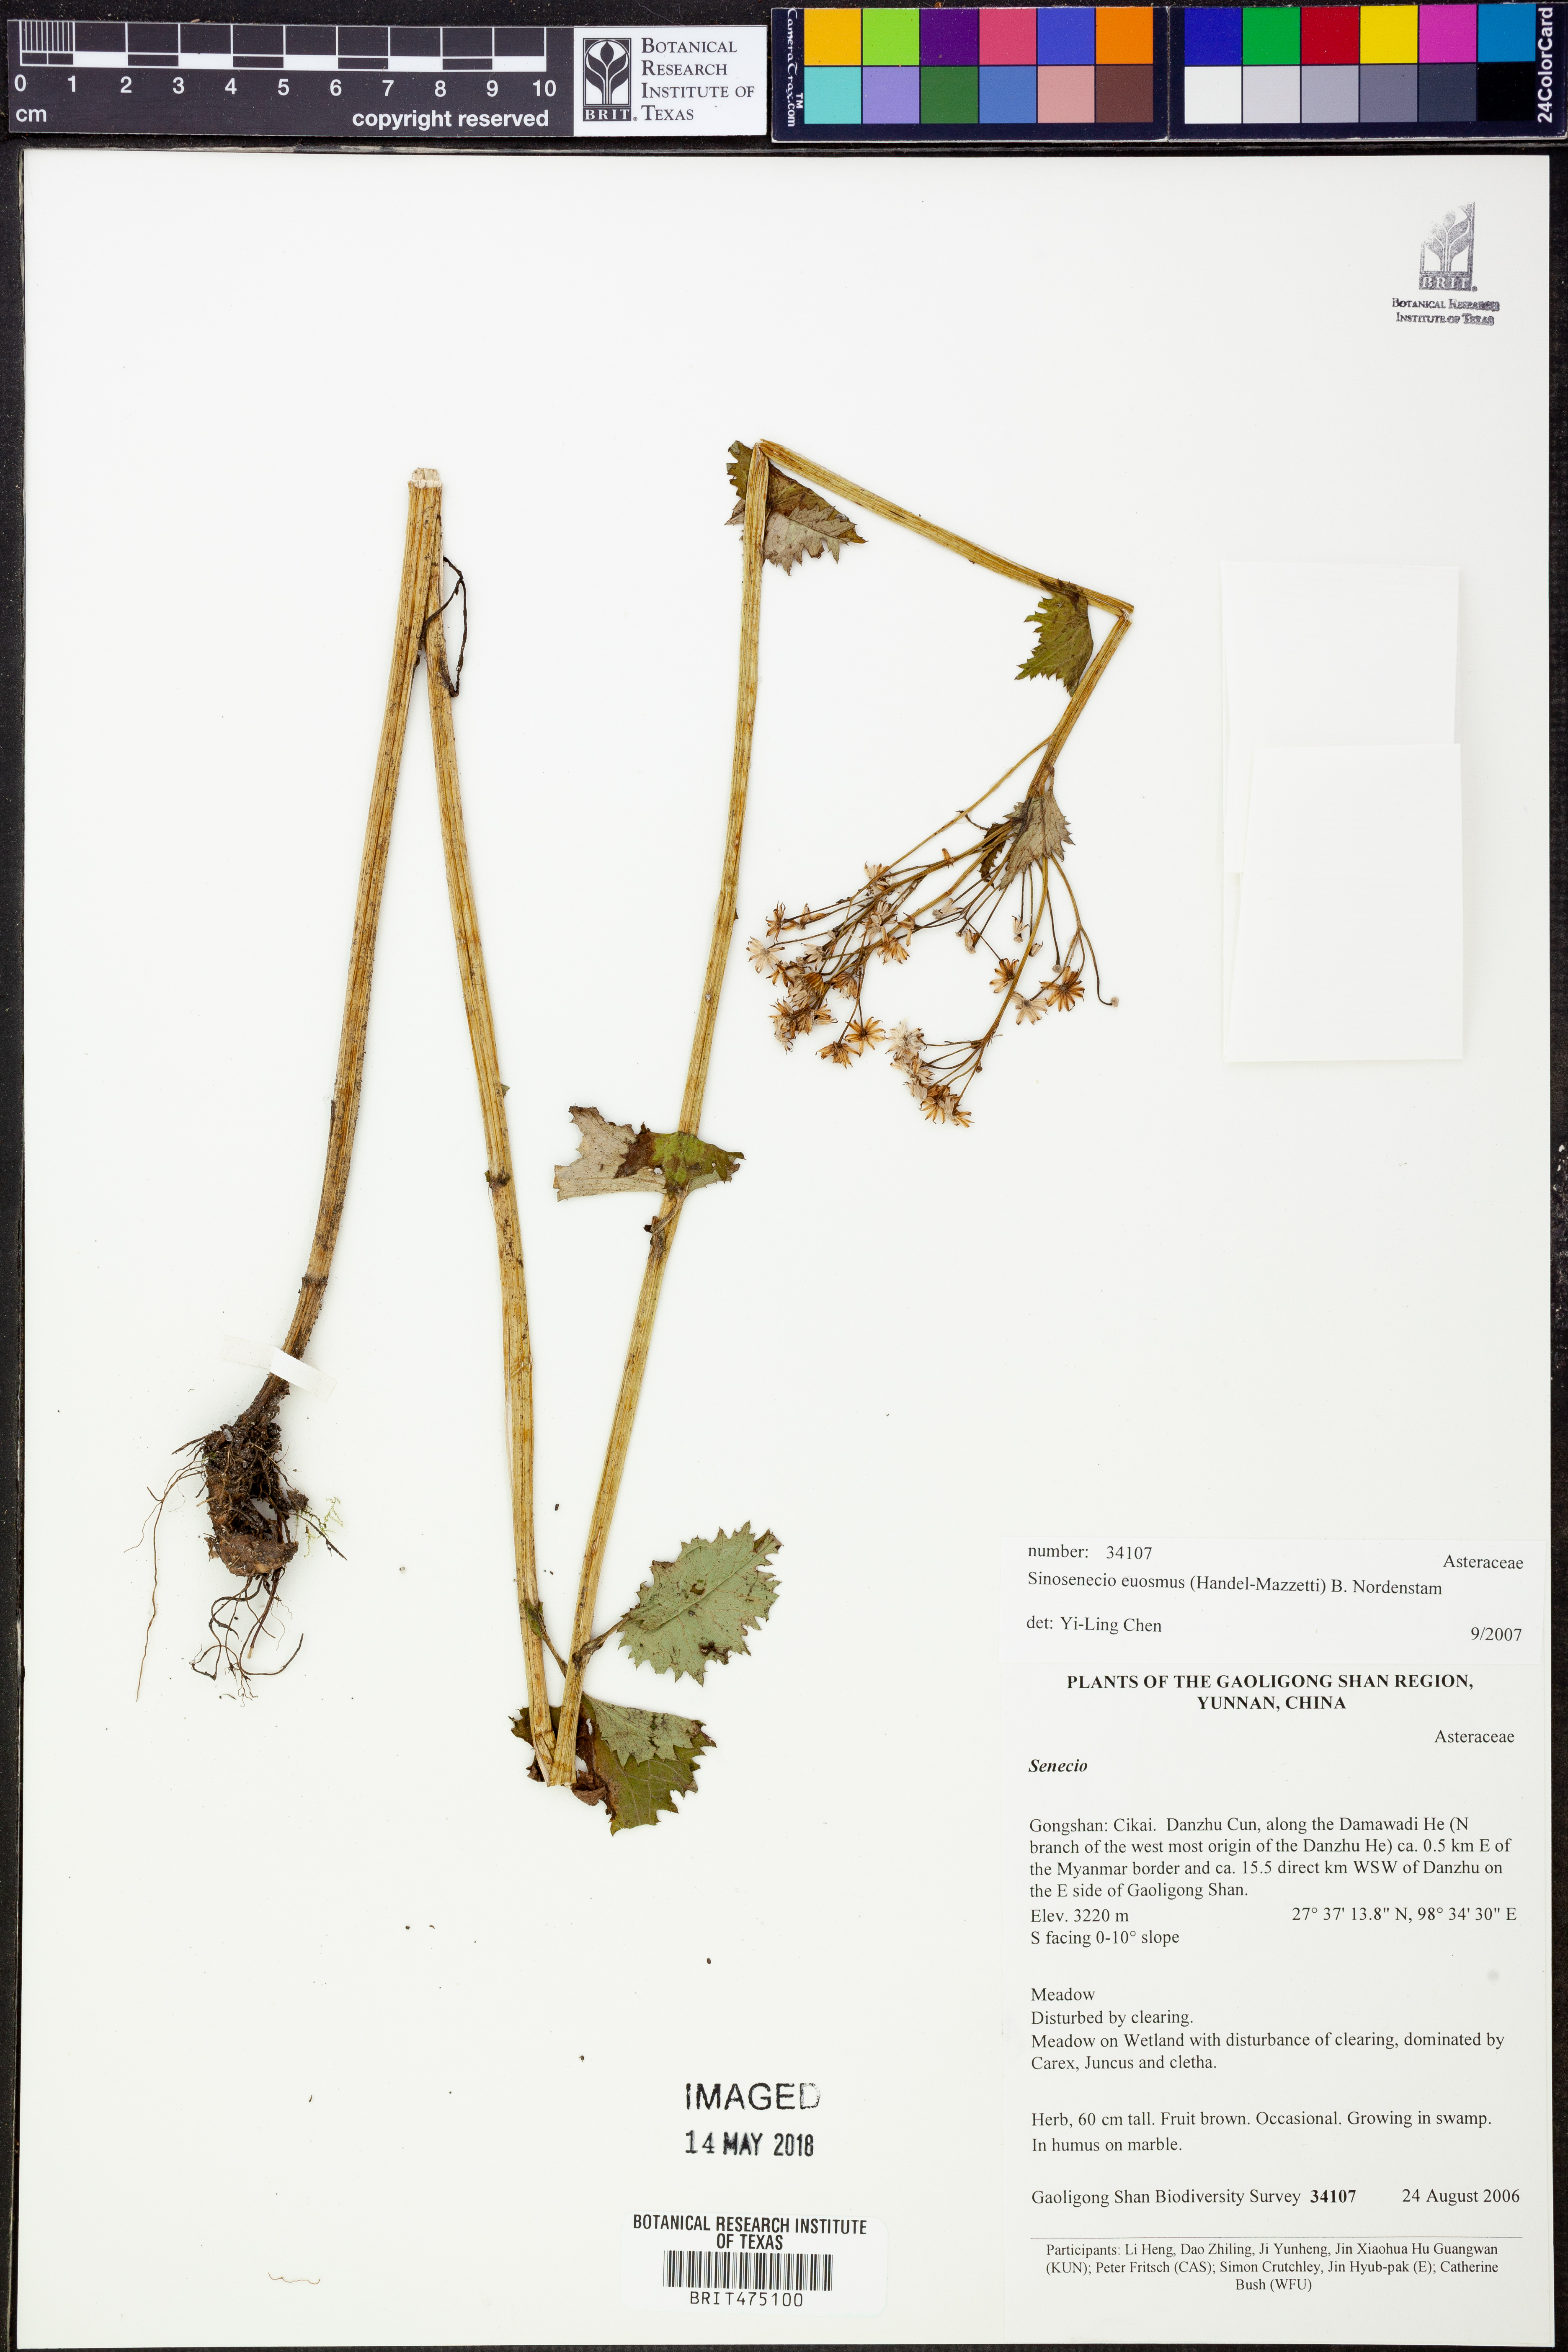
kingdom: Plantae
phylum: Tracheophyta
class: Magnoliopsida
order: Asterales
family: Asteraceae
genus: Sinosenecio
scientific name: Sinosenecio euosmus
